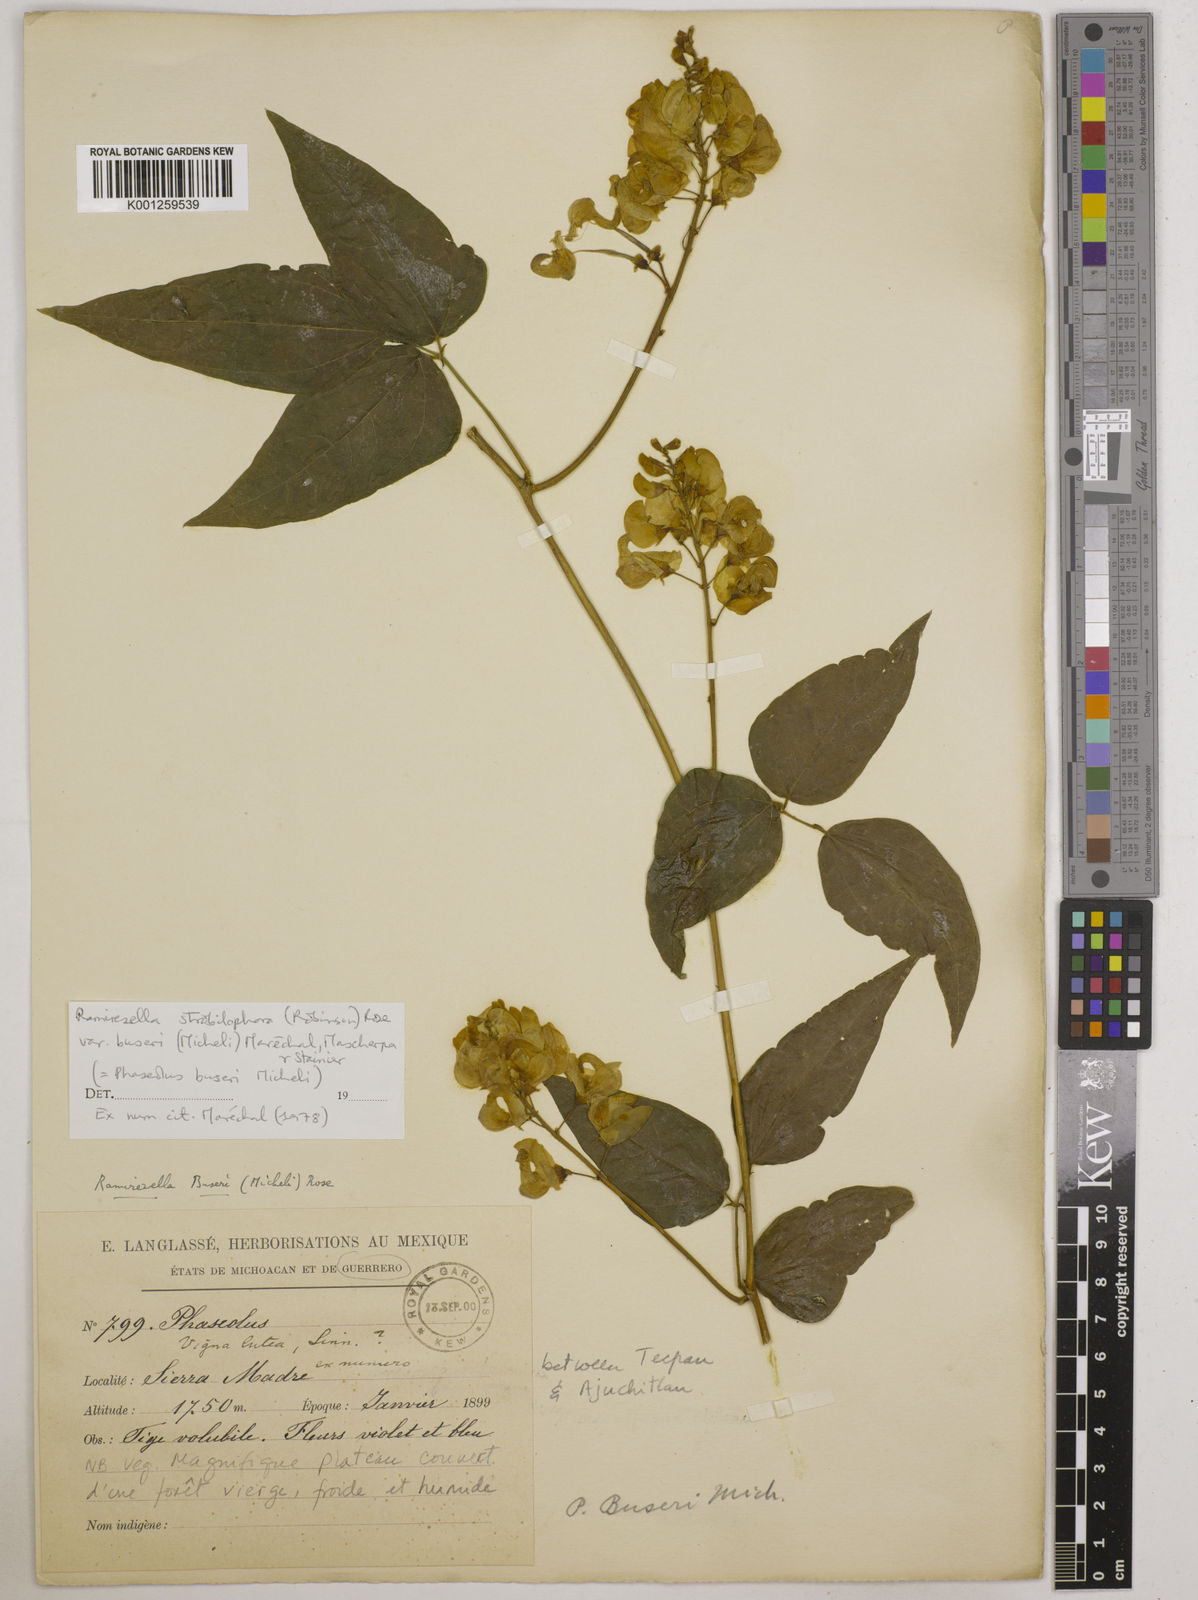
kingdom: Plantae
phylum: Tracheophyta
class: Magnoliopsida
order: Fabales
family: Fabaceae
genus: Ramirezella
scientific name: Ramirezella strobilophora
